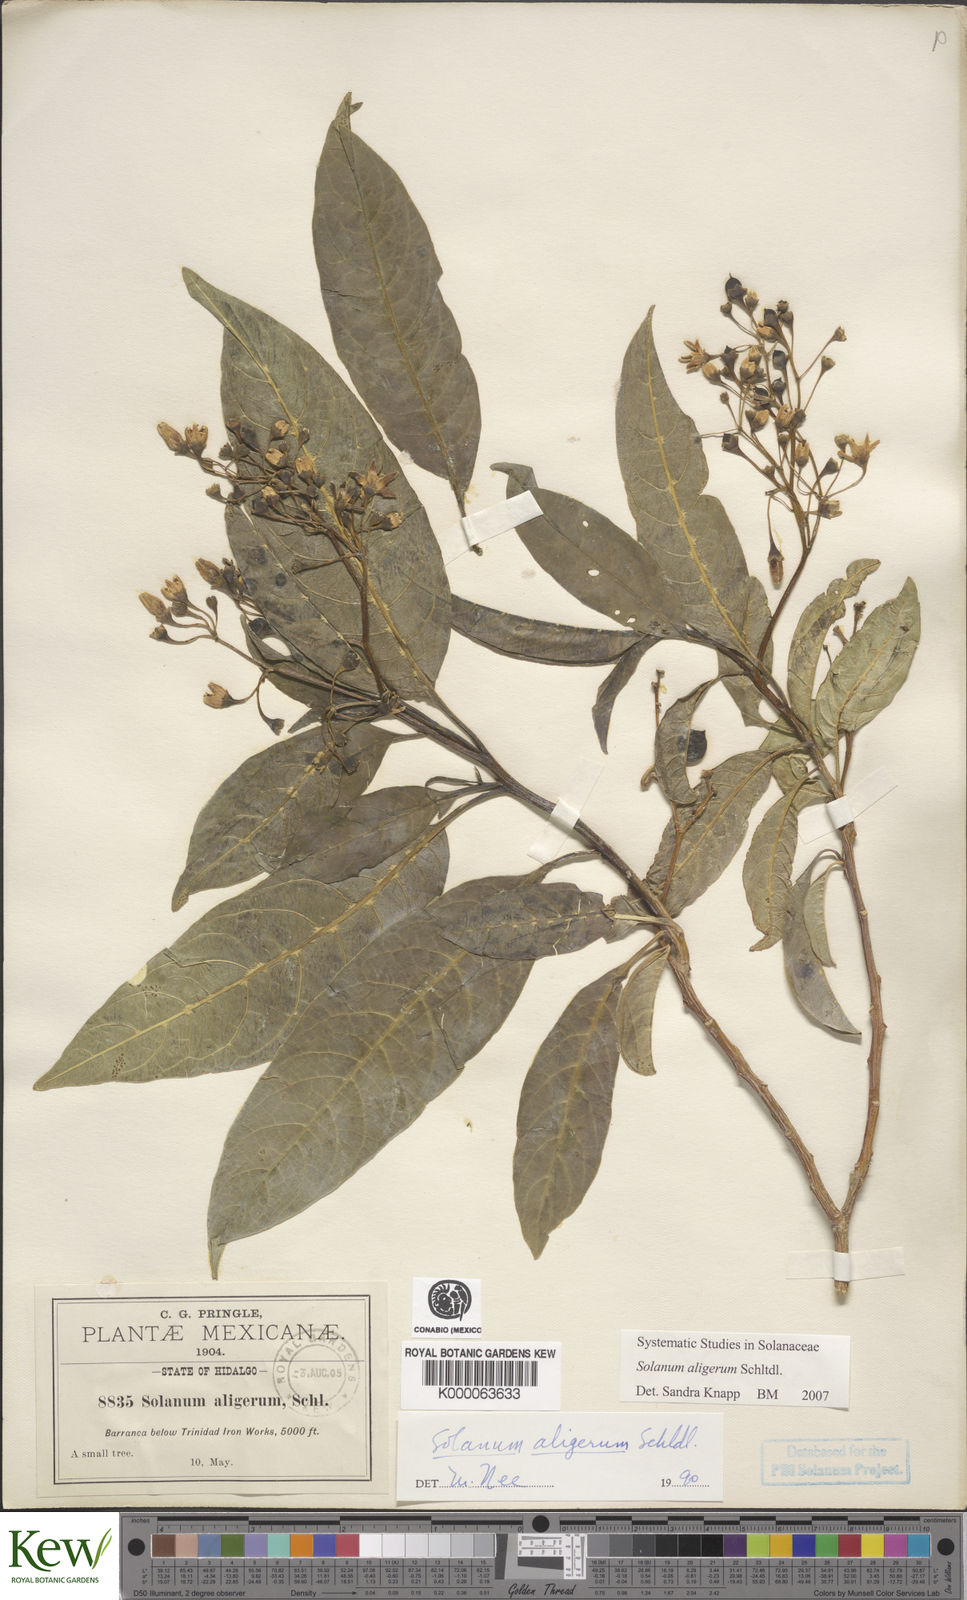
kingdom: Plantae
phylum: Tracheophyta
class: Magnoliopsida
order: Solanales
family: Solanaceae
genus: Solanum
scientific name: Solanum aligerum
